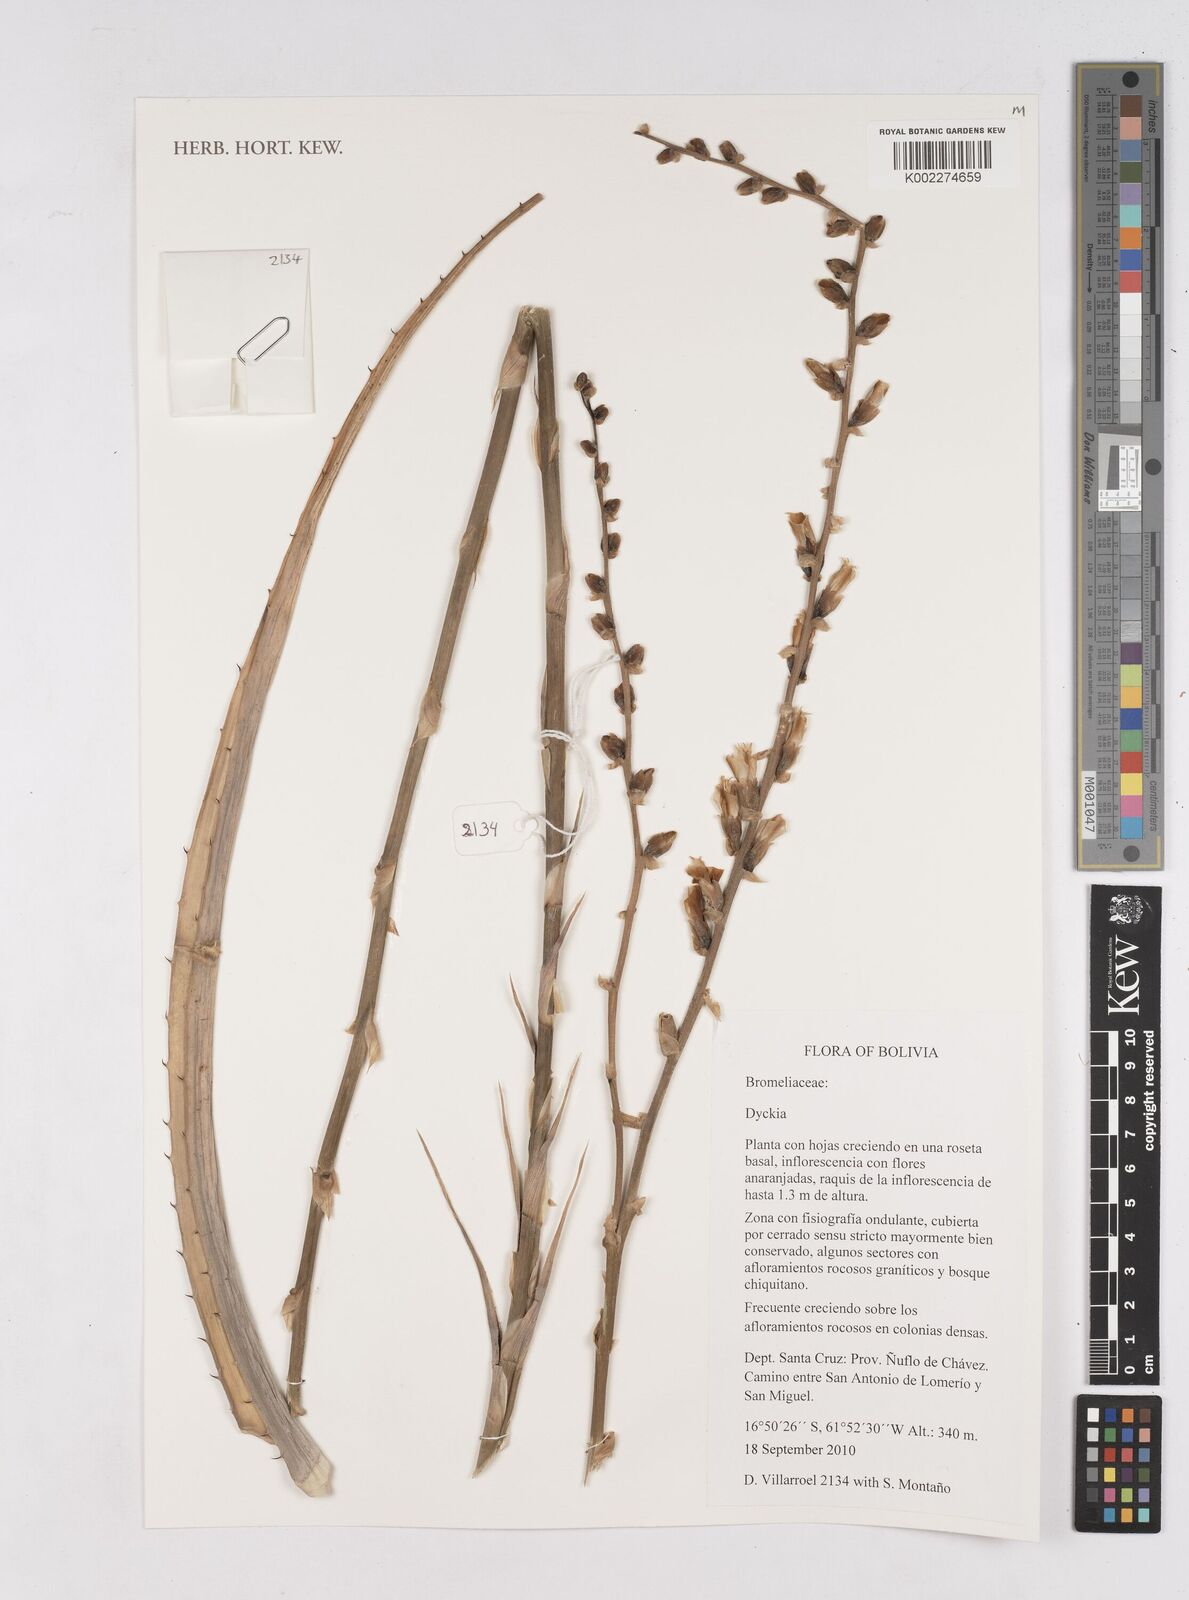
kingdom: Plantae
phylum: Tracheophyta
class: Liliopsida
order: Poales
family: Bromeliaceae
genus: Dyckia
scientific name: Dyckia
